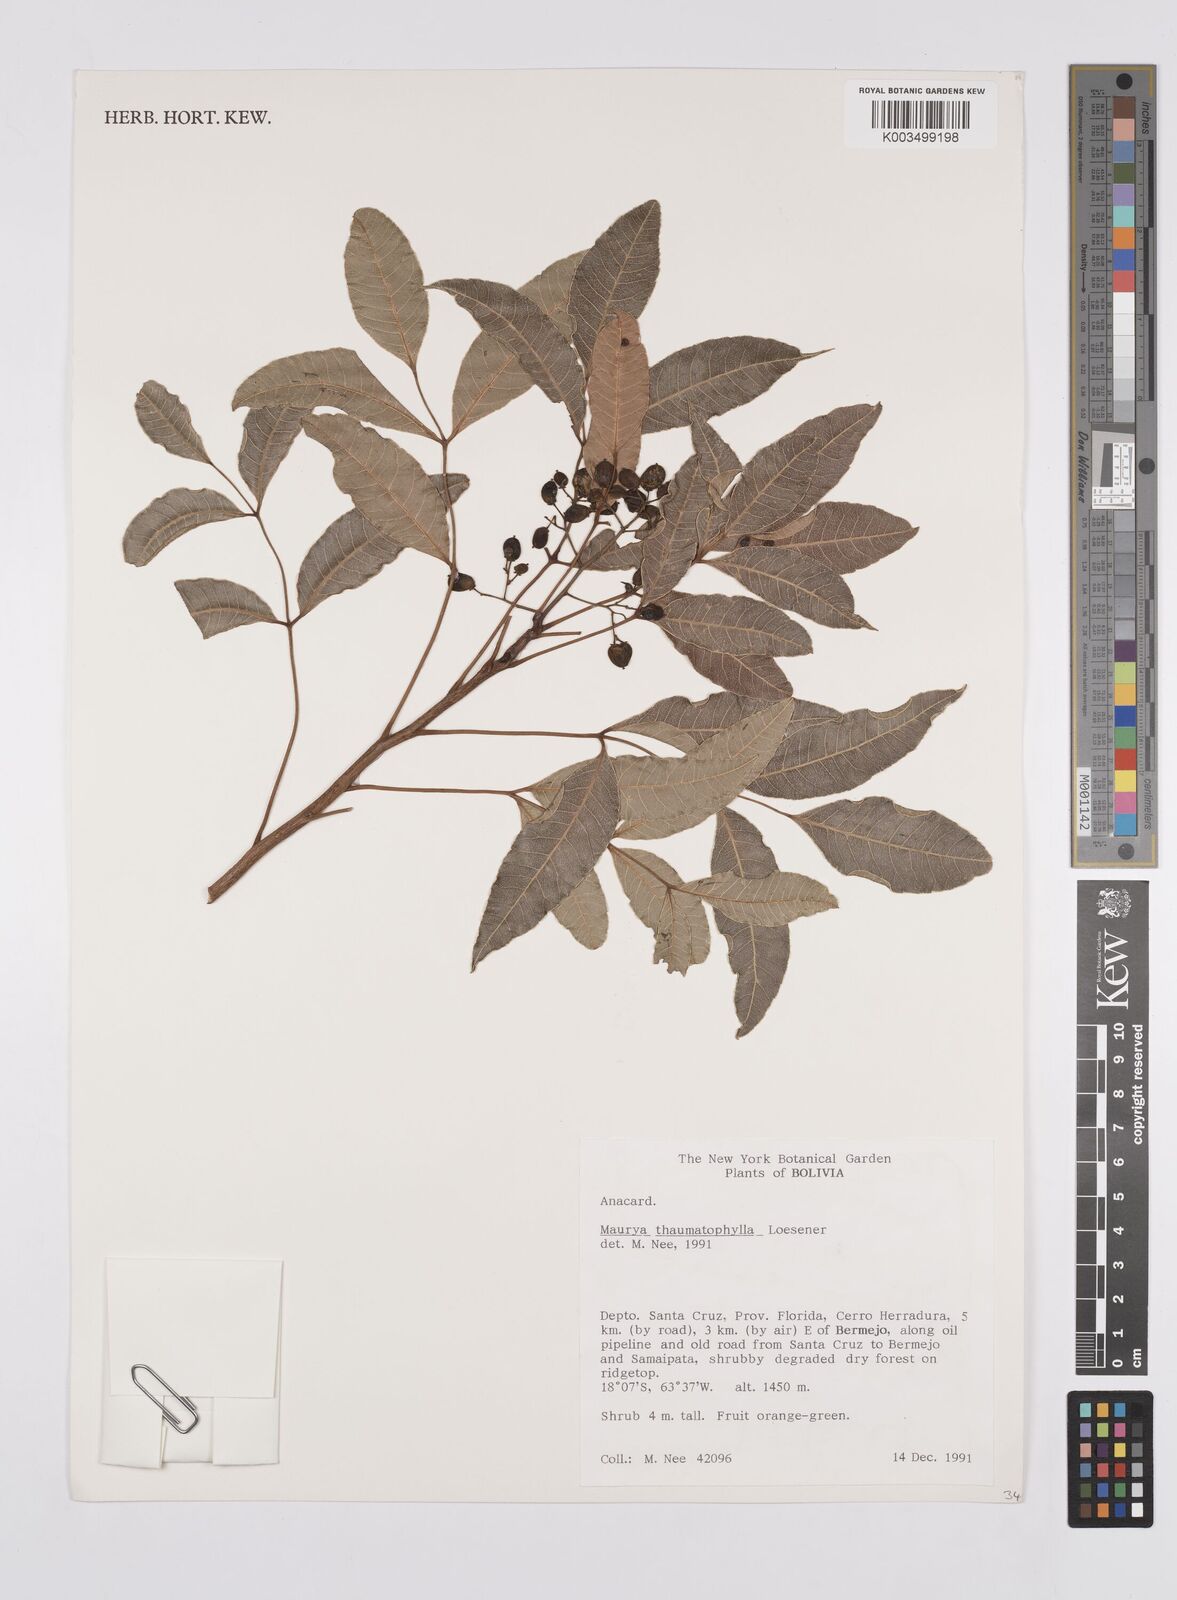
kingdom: Plantae
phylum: Tracheophyta
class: Magnoliopsida
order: Sapindales
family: Anacardiaceae
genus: Mauria
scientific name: Mauria thaumatophylla
